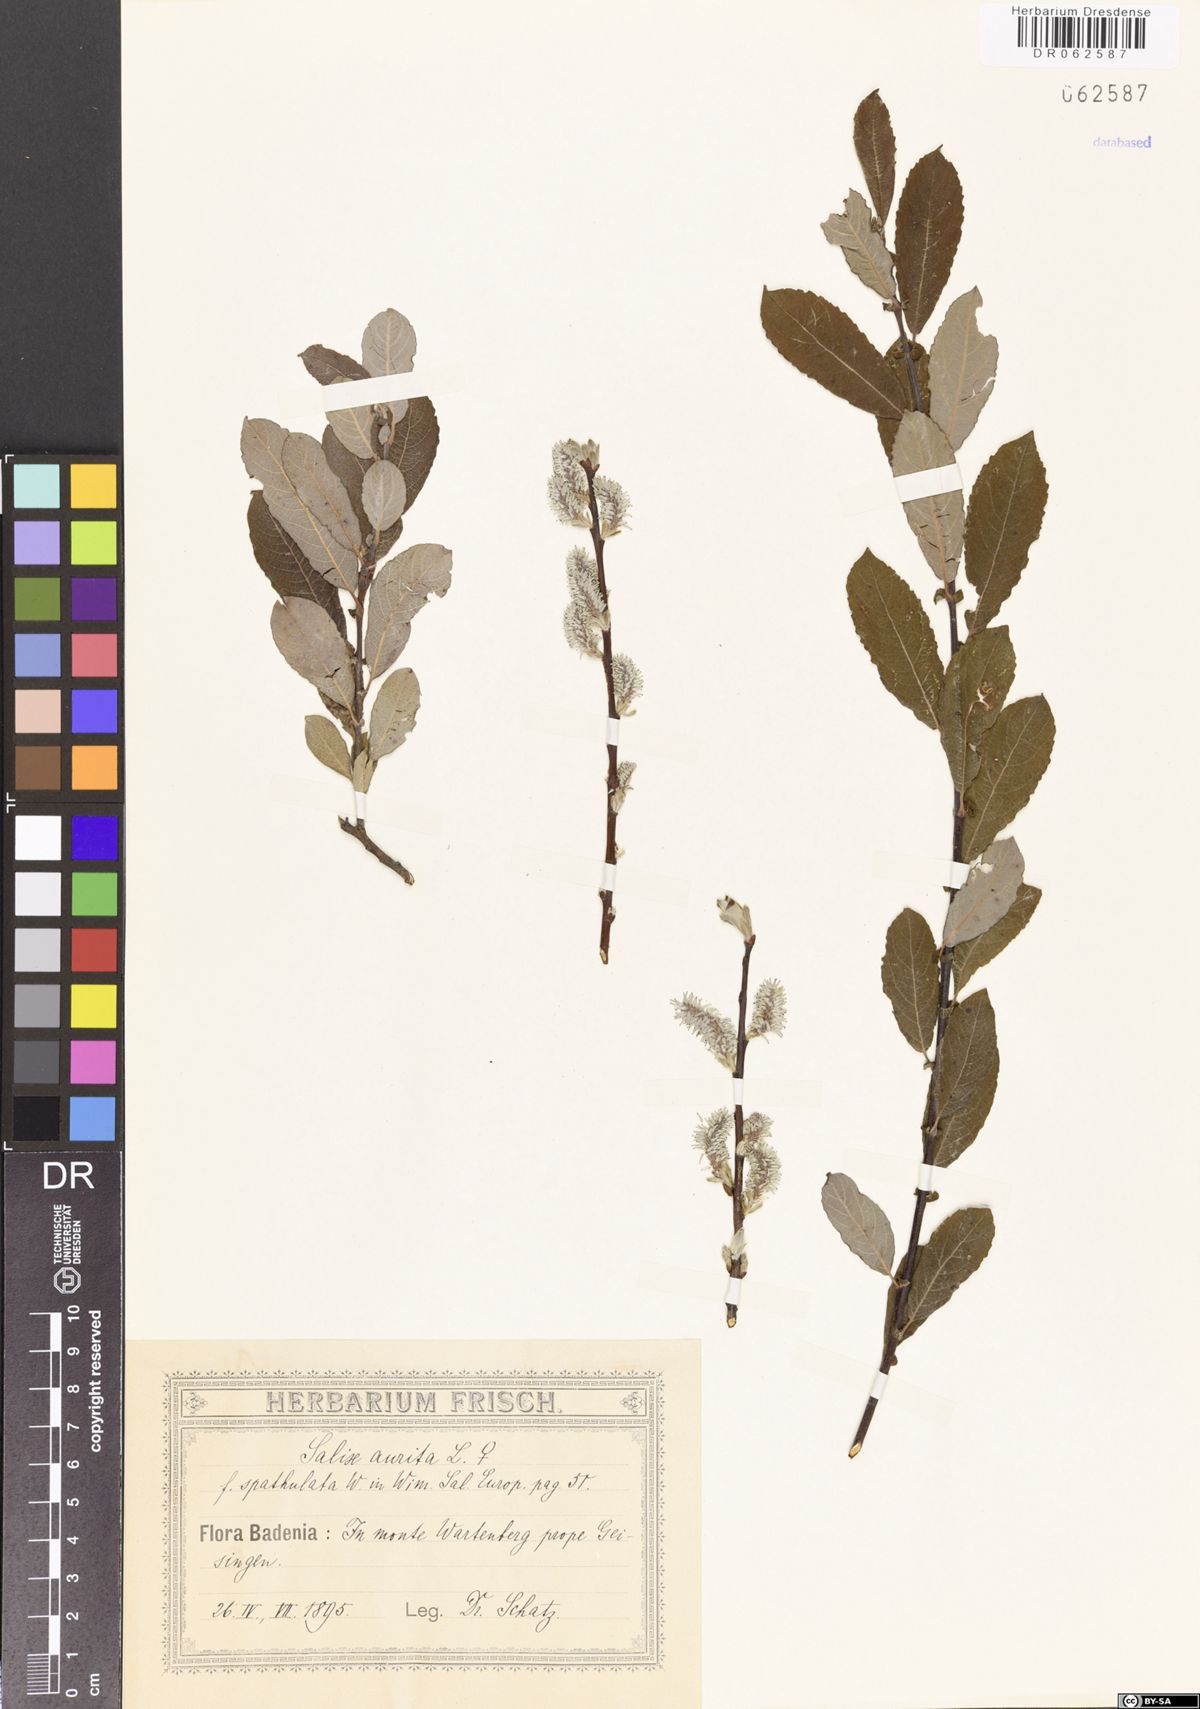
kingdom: Plantae
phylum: Tracheophyta
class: Magnoliopsida
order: Malpighiales
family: Salicaceae
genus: Salix
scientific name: Salix aurita
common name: Eared willow
